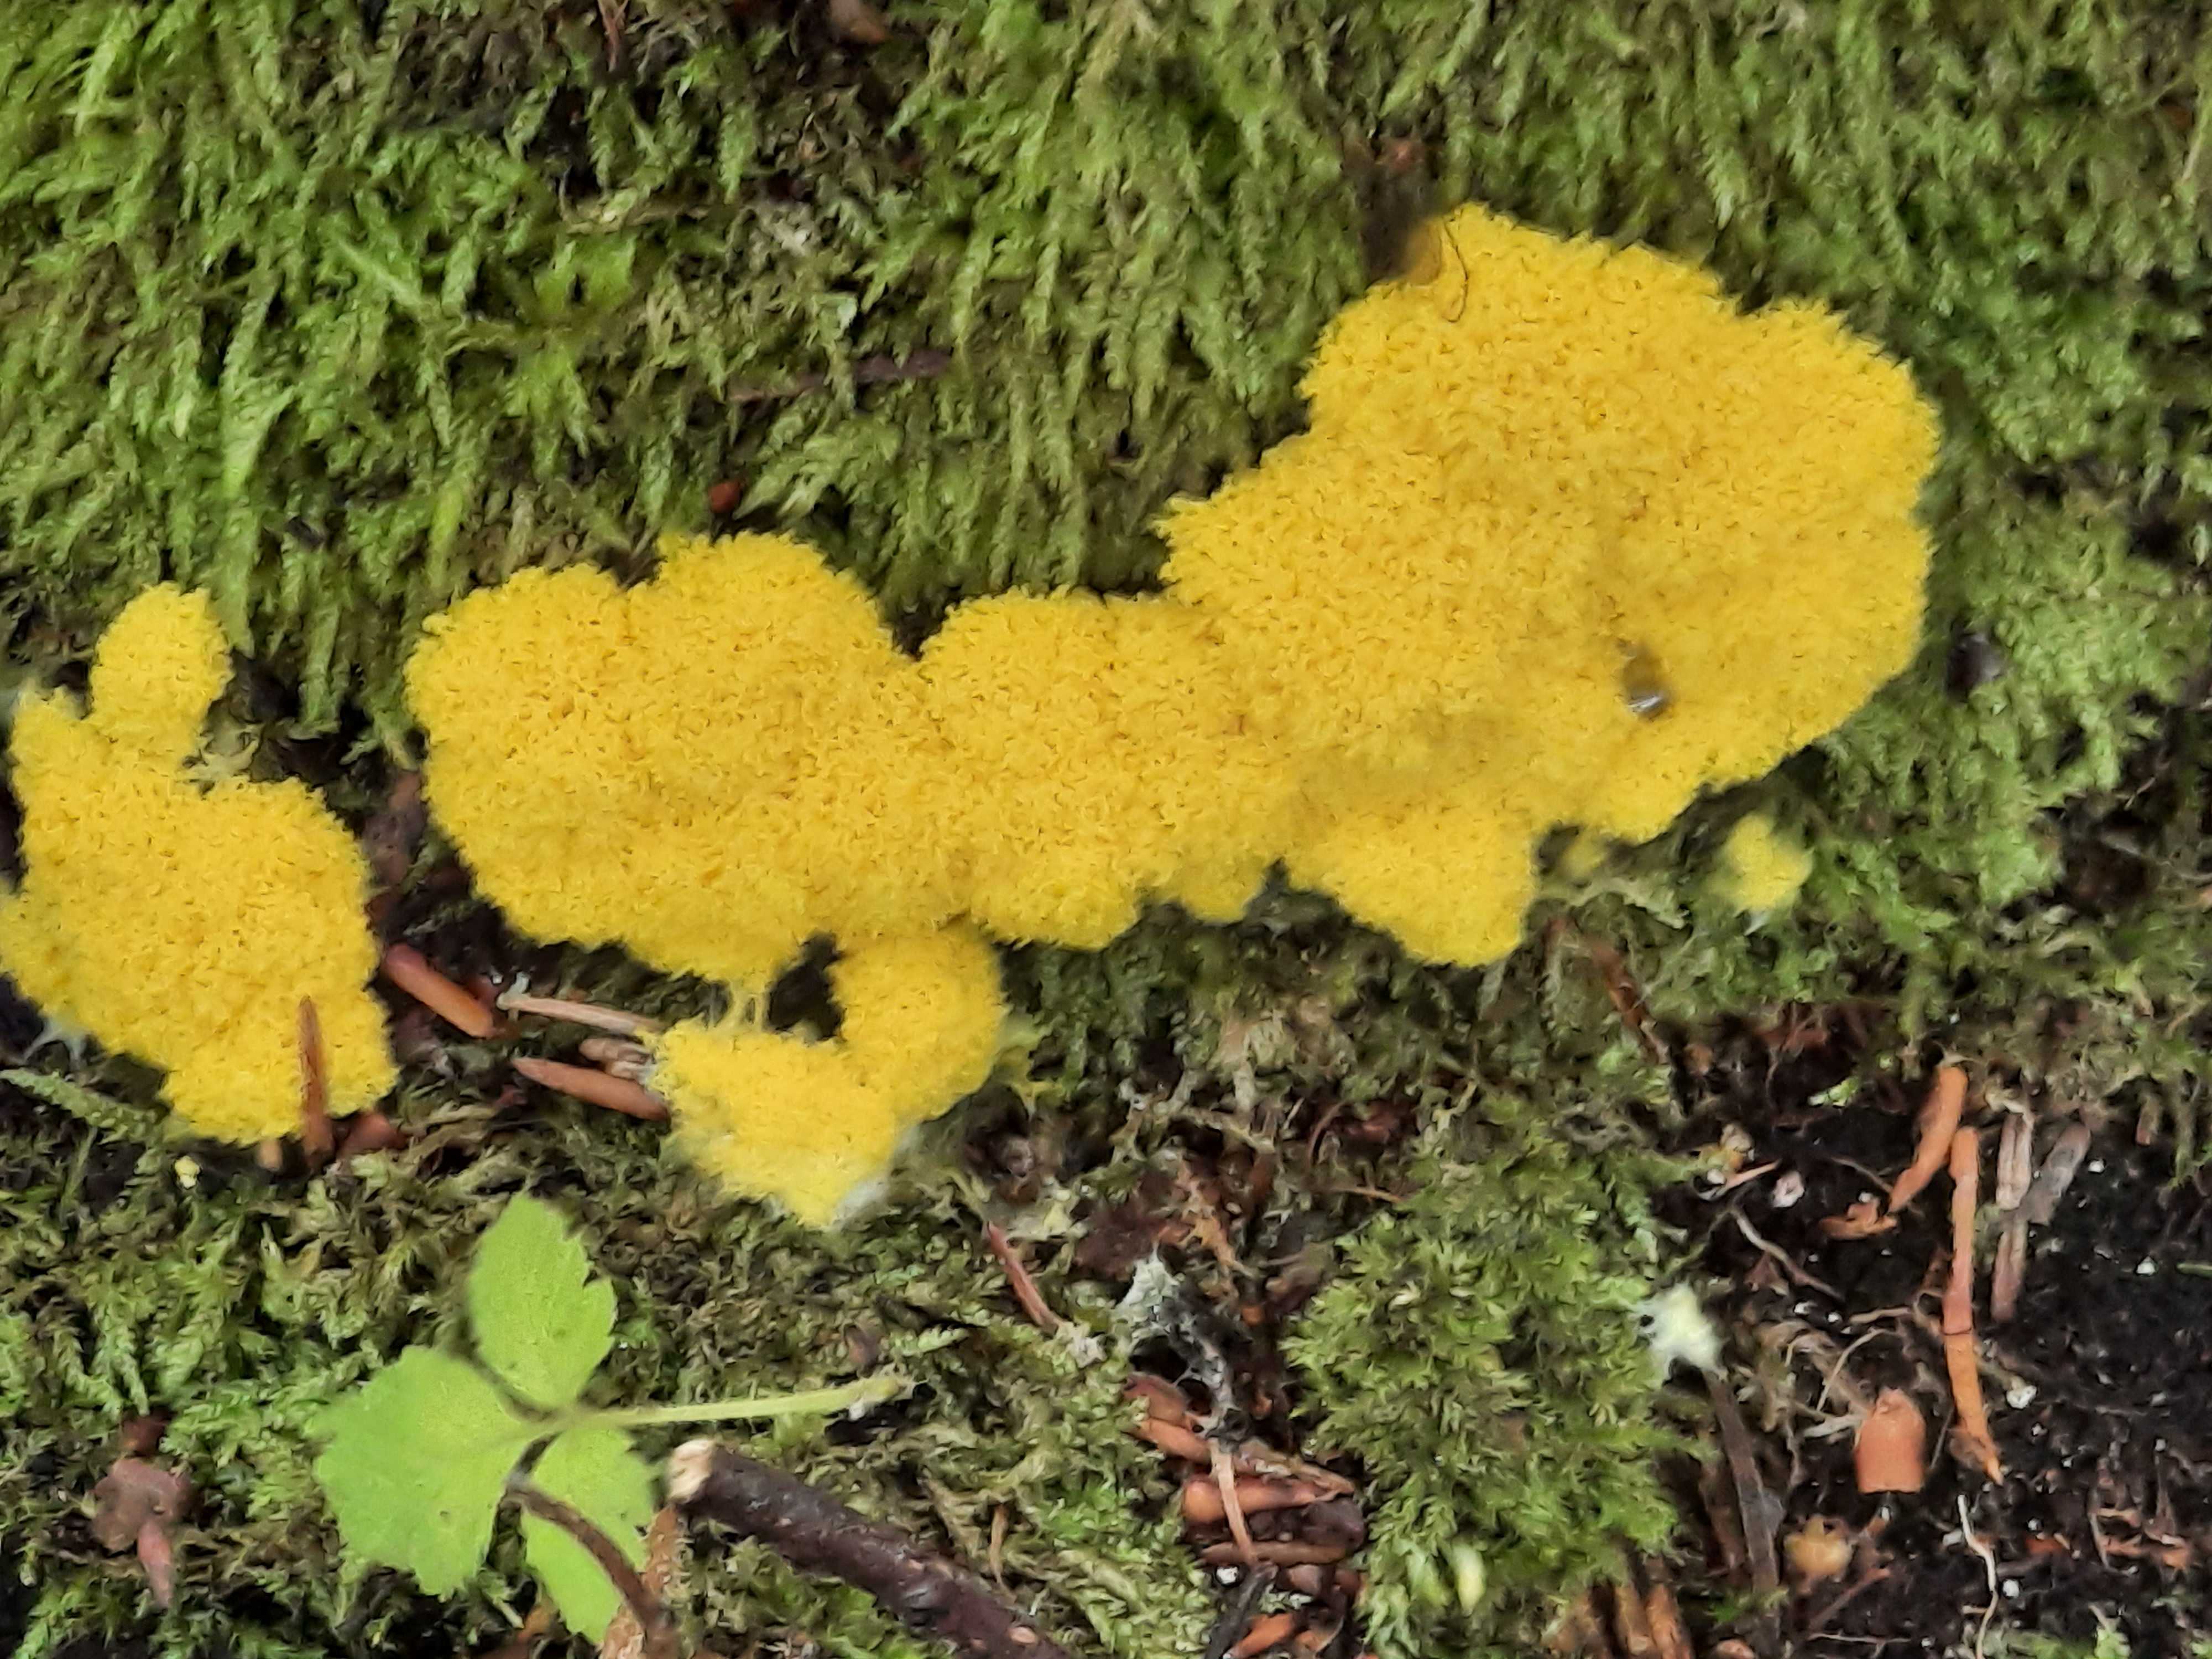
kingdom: Protozoa
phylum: Mycetozoa
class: Myxomycetes
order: Physarales
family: Physaraceae
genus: Fuligo
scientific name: Fuligo septica
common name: gul troldsmør
